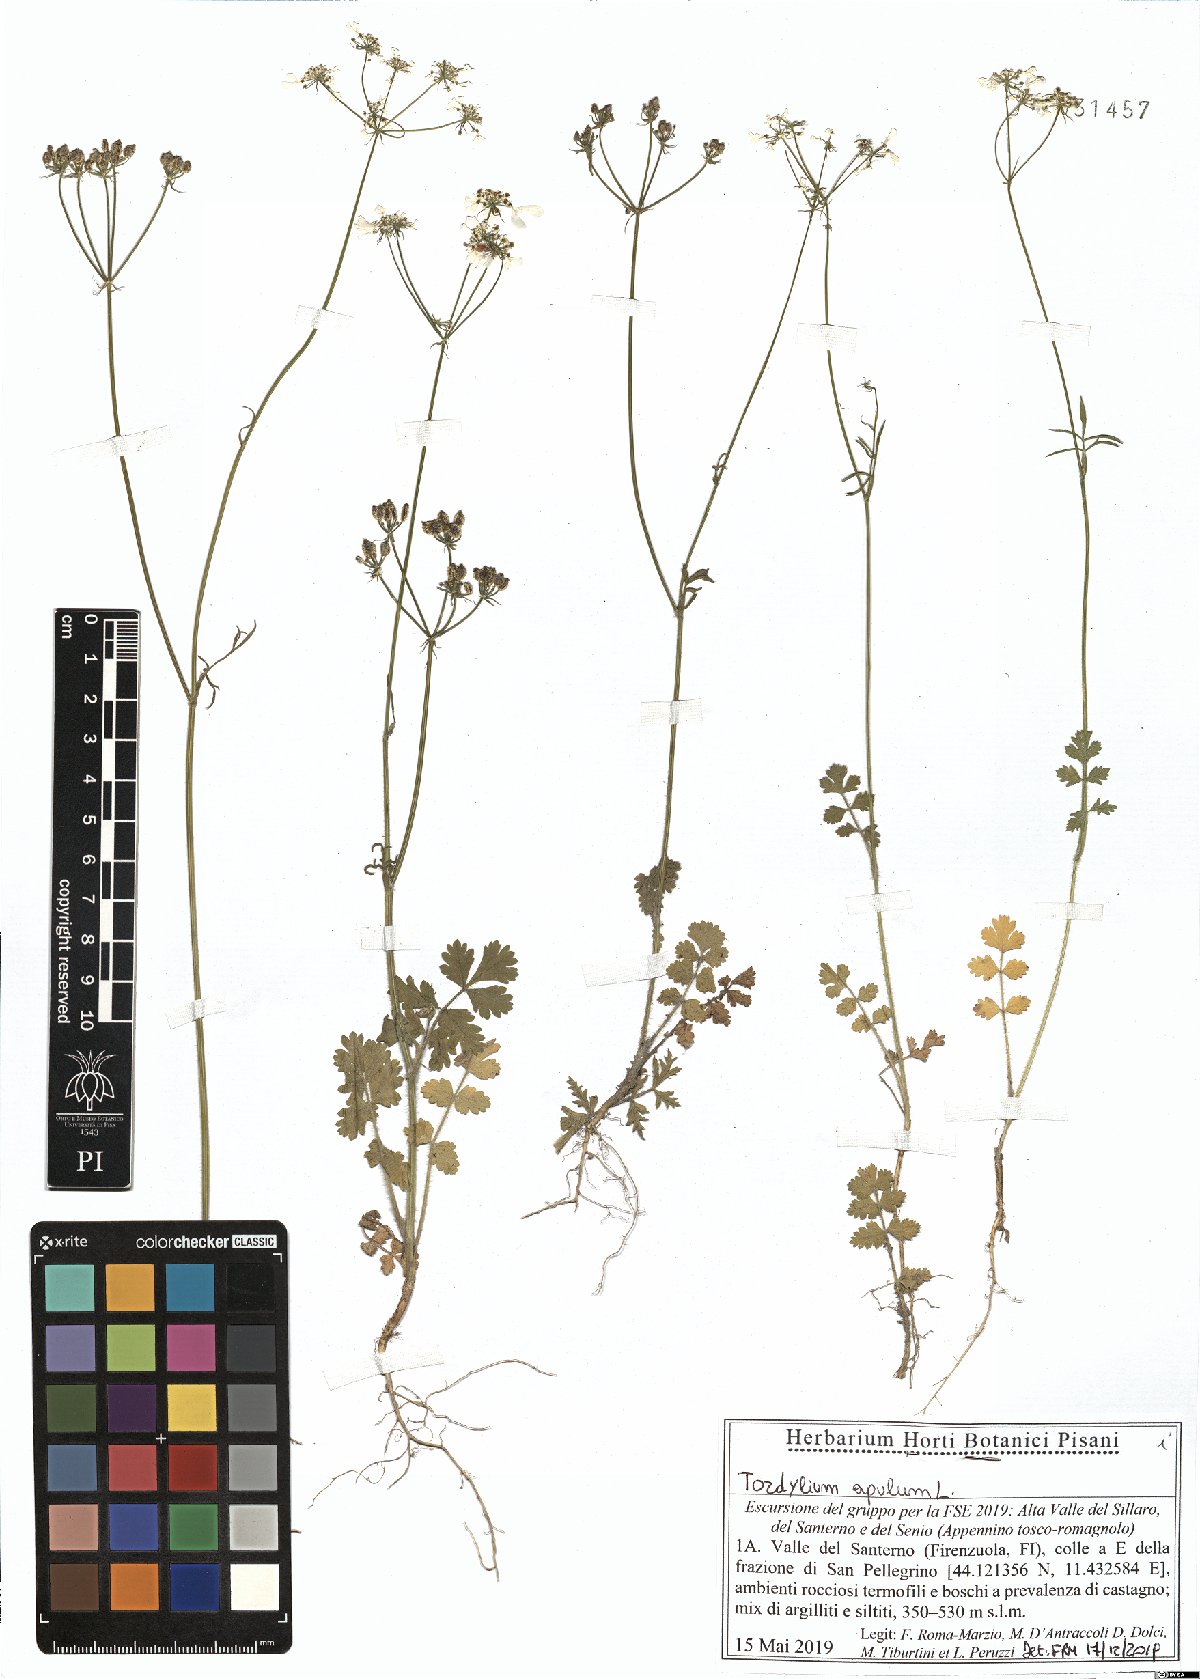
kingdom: Plantae
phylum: Tracheophyta
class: Magnoliopsida
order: Apiales
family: Apiaceae
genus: Tordylium
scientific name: Tordylium apulum
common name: Mediterranean hartwort
